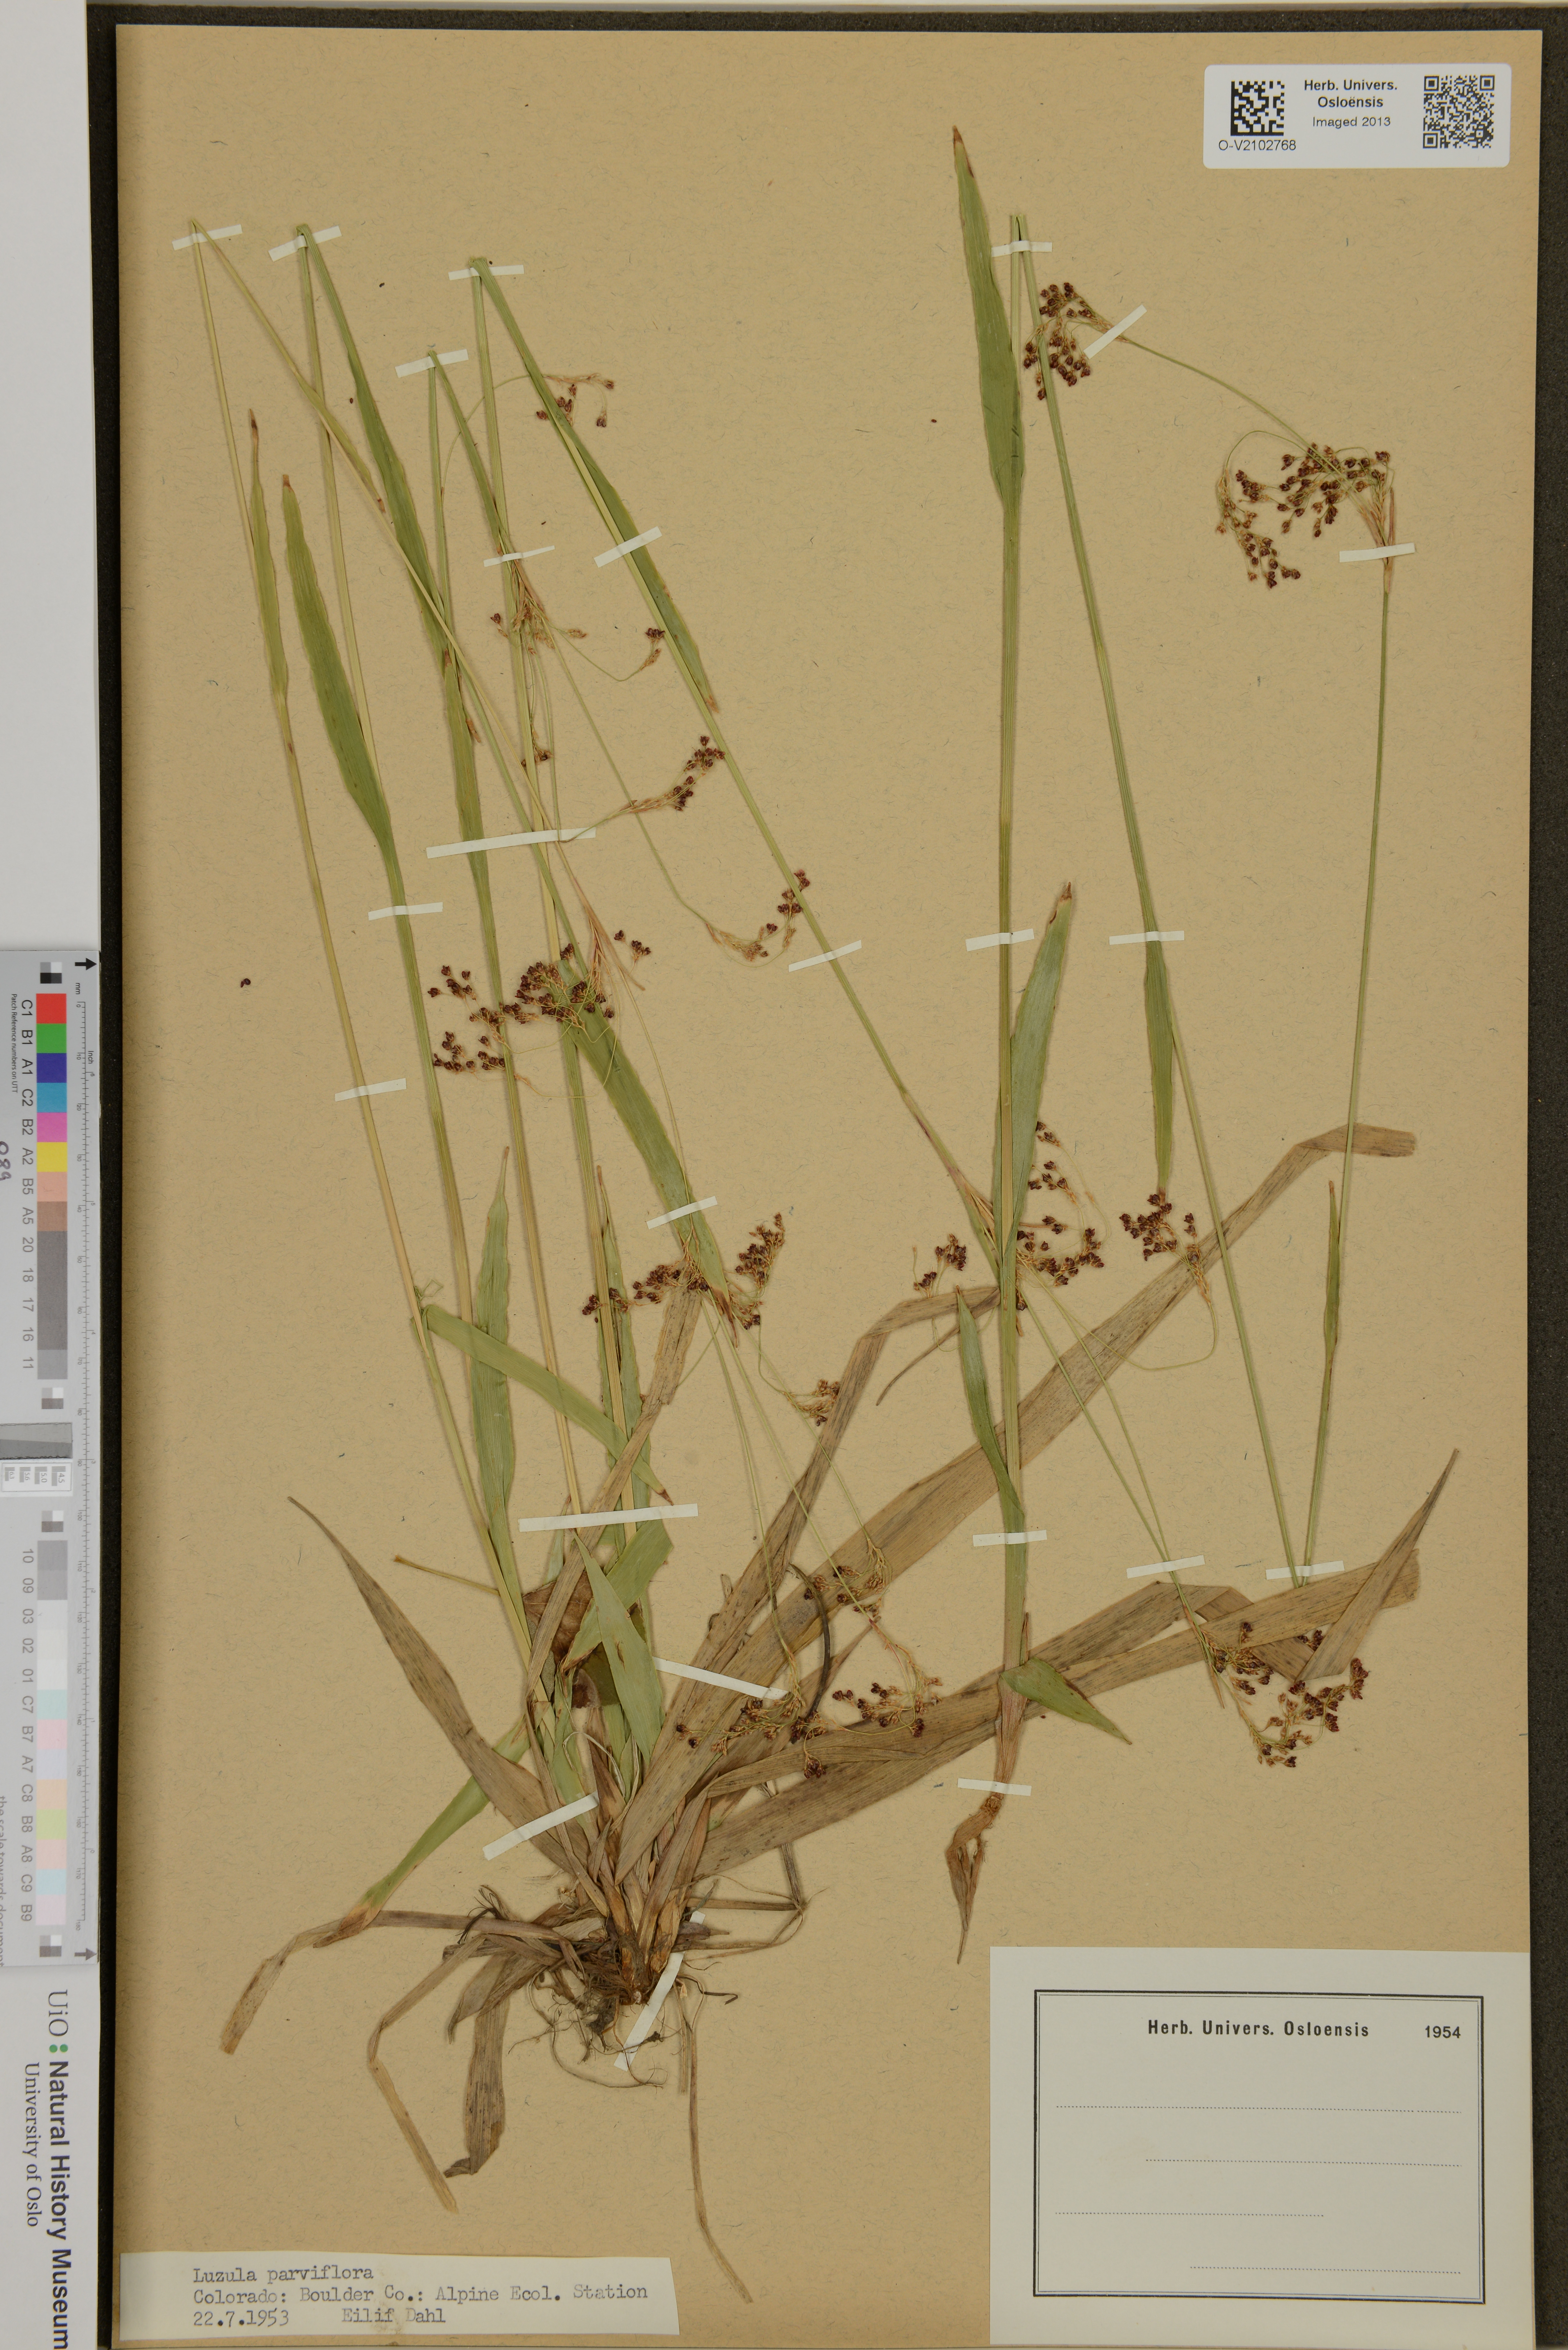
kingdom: Plantae
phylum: Tracheophyta
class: Liliopsida
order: Poales
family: Juncaceae
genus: Luzula
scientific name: Luzula parviflora
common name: Millet woodrush
